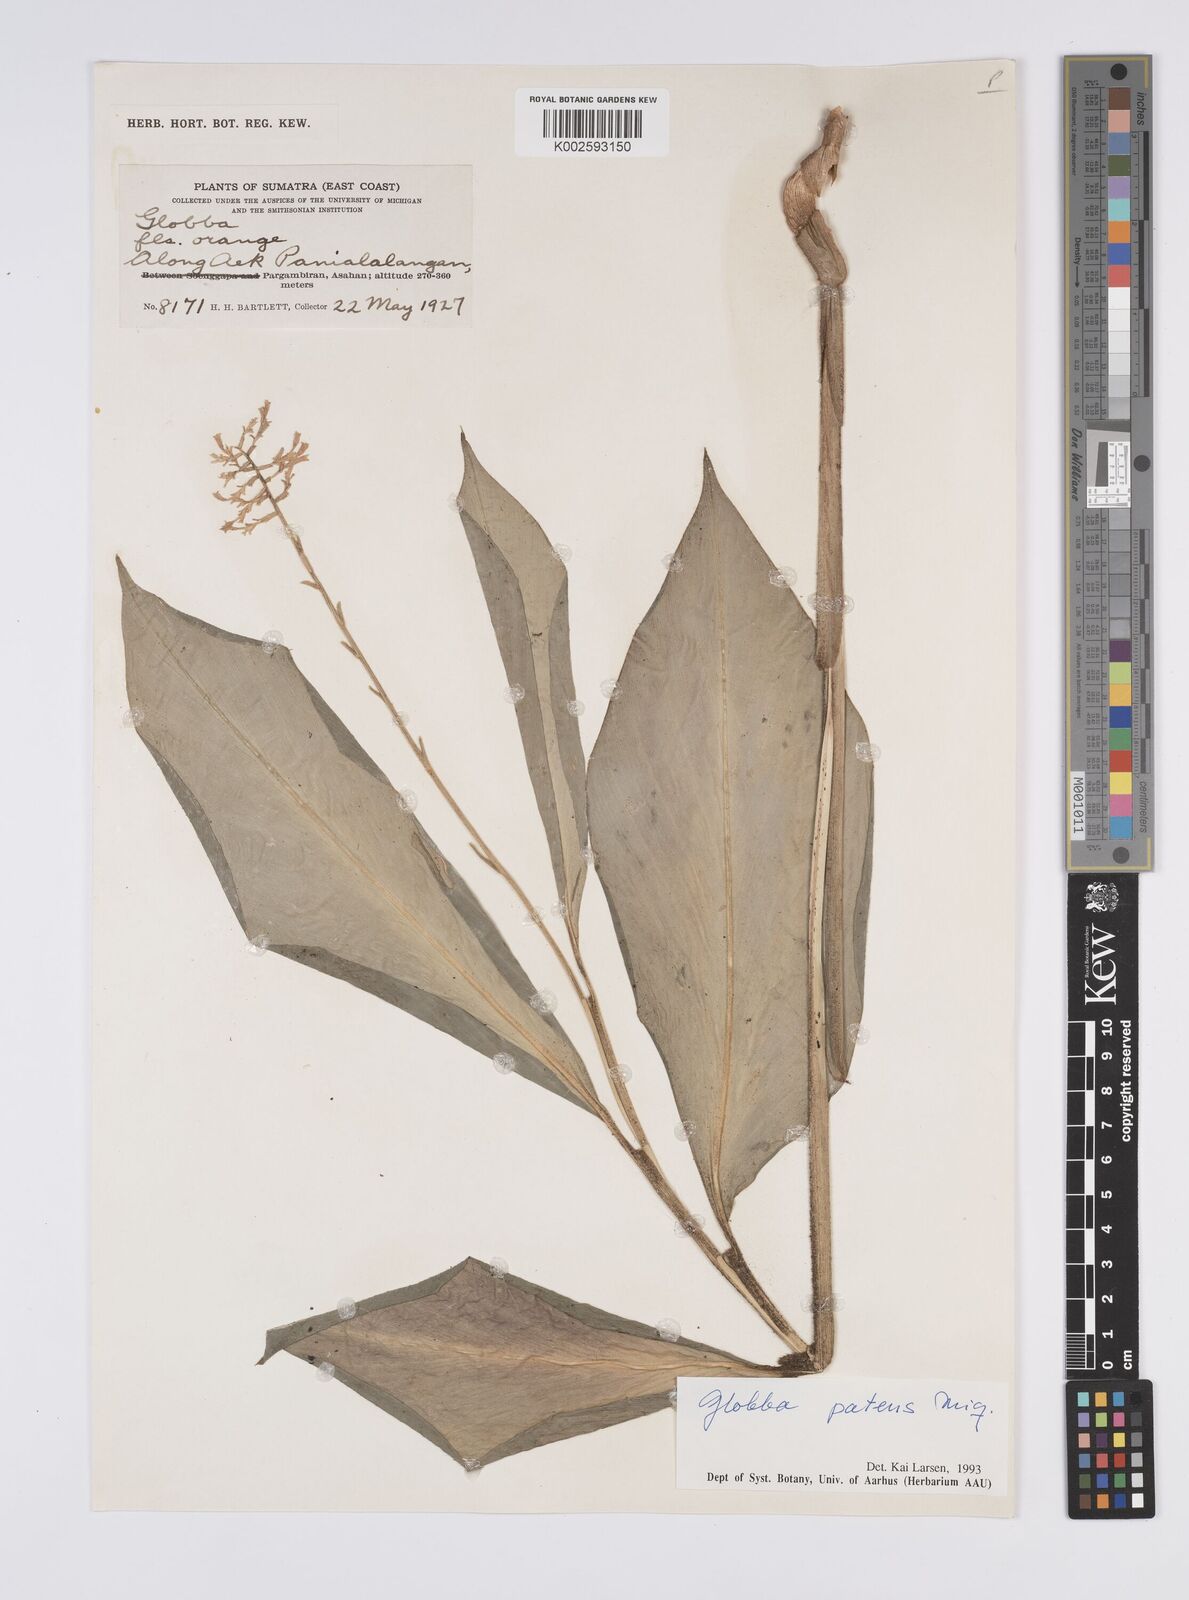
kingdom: Plantae
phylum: Tracheophyta
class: Liliopsida
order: Zingiberales
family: Zingiberaceae
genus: Globba
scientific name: Globba patens
